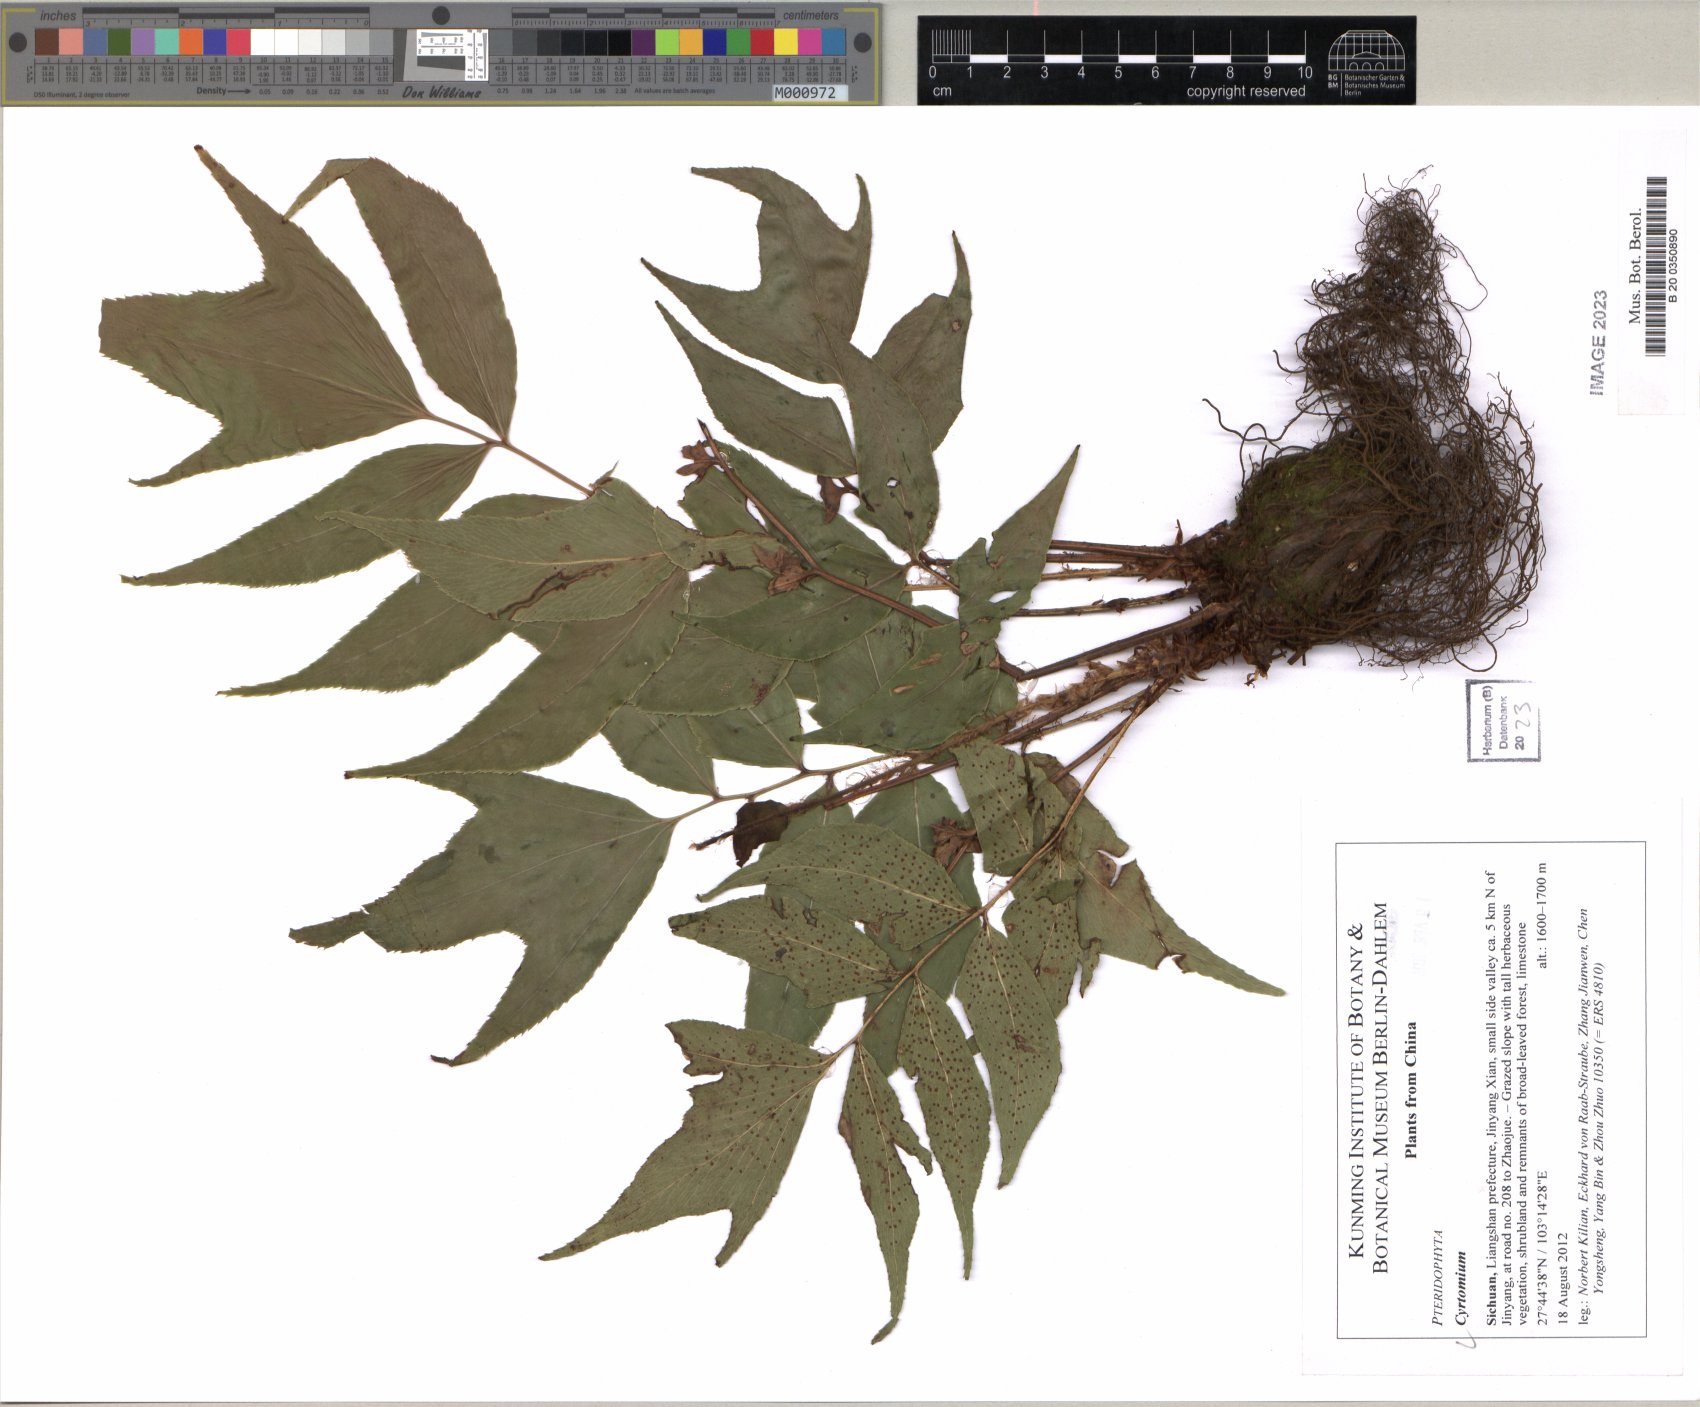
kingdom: Plantae
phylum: Tracheophyta
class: Polypodiopsida
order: Polypodiales
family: Dryopteridaceae
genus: Cyrtomium
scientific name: Cyrtomium
